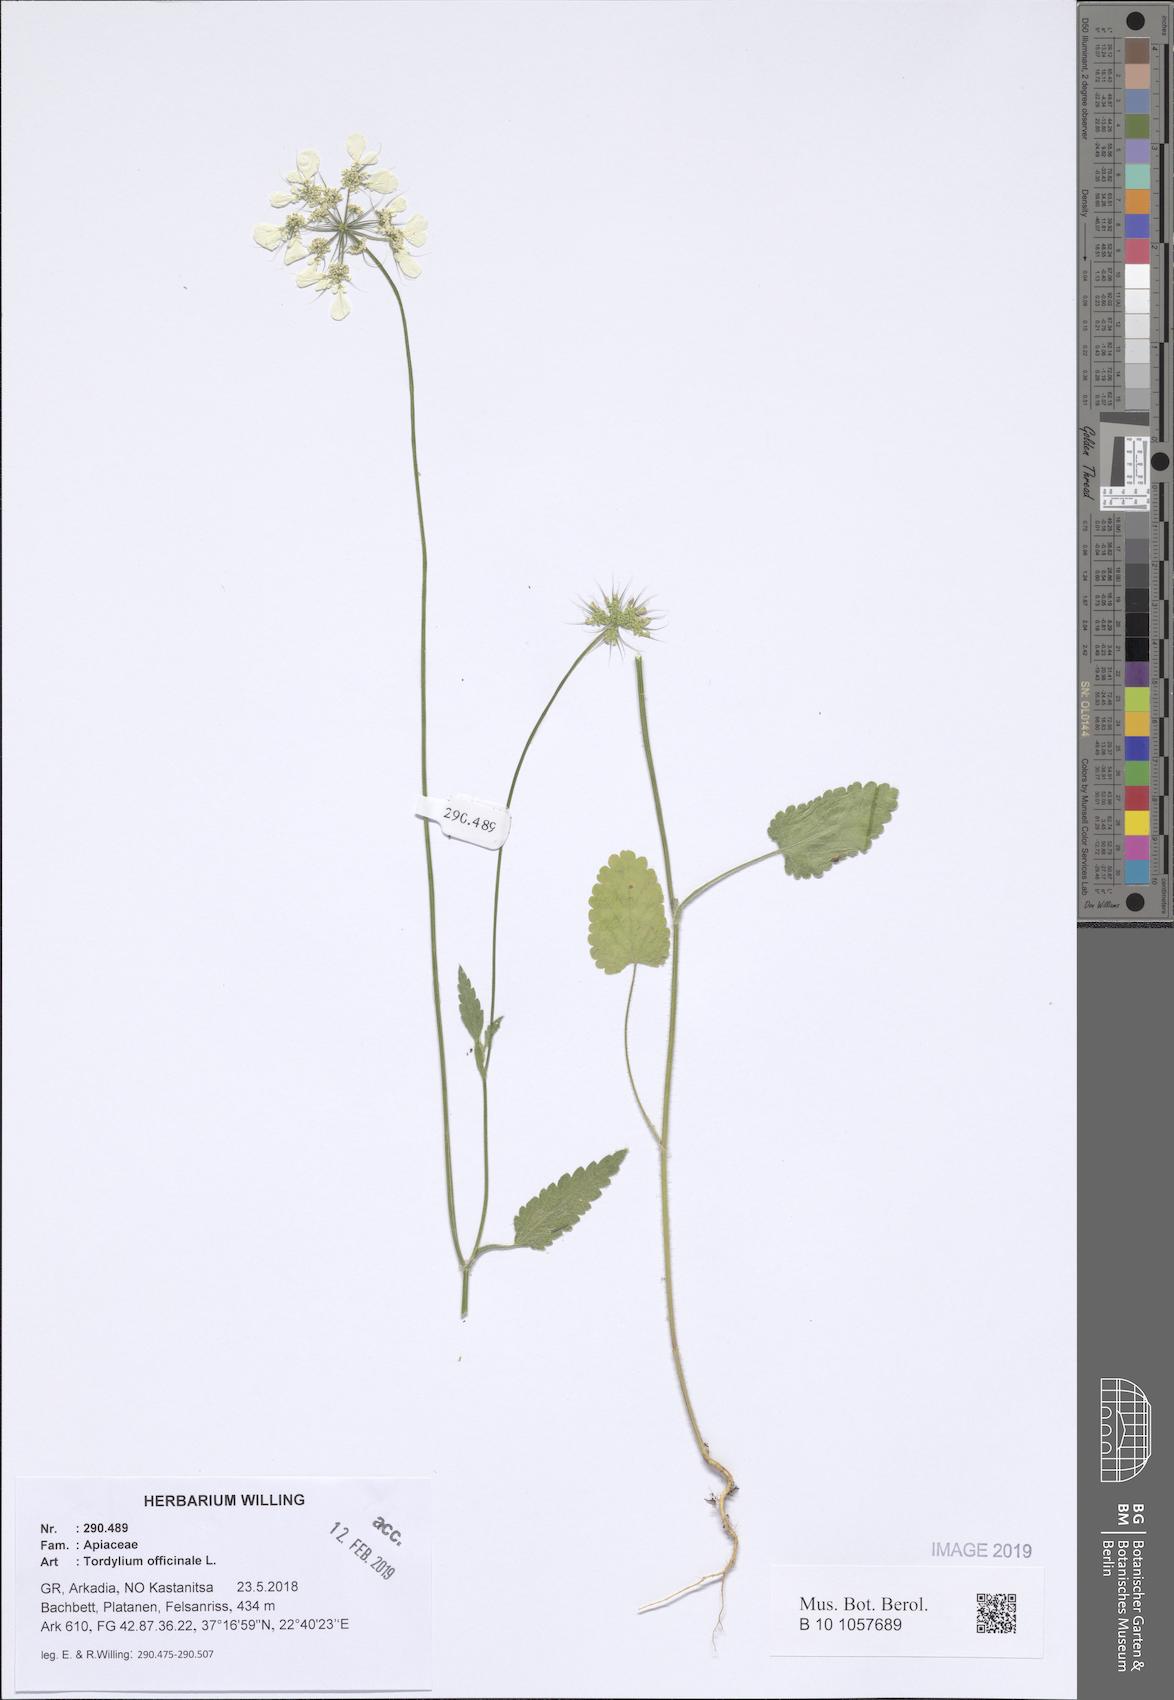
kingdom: Plantae
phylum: Tracheophyta
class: Magnoliopsida
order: Apiales
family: Apiaceae
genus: Tordylium
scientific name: Tordylium officinale
